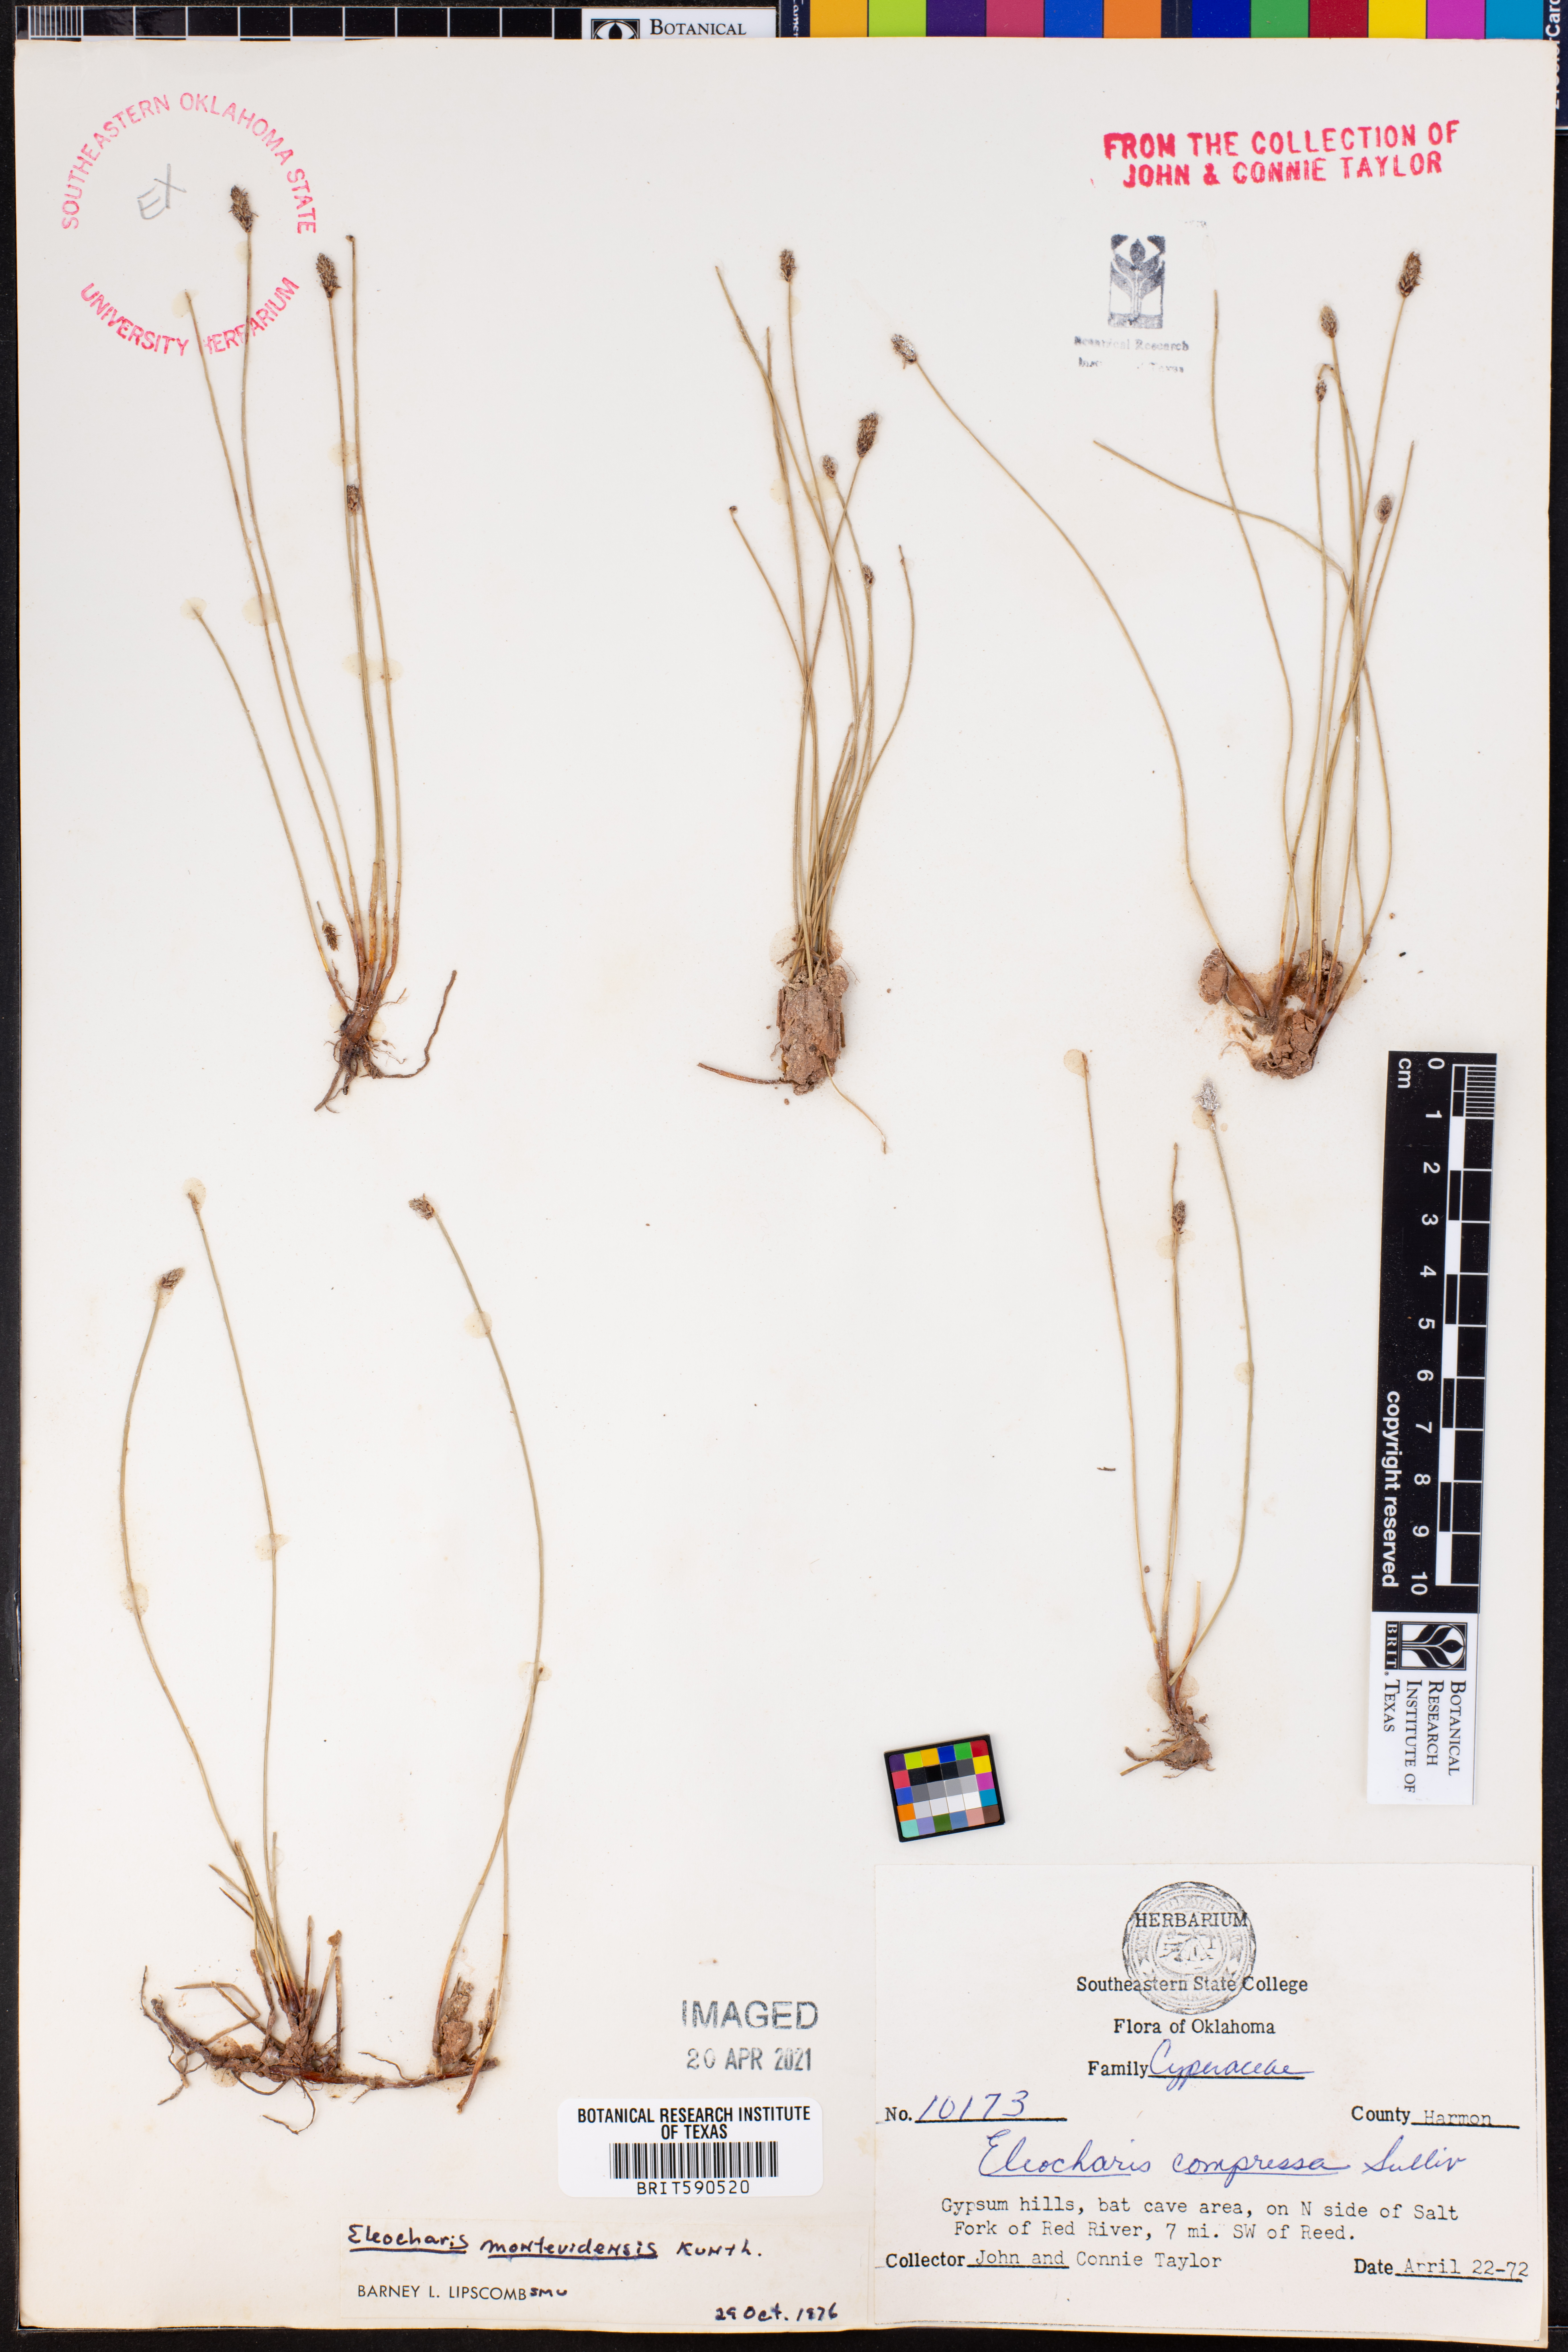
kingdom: Plantae
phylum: Tracheophyta
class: Liliopsida
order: Poales
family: Cyperaceae
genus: Eleocharis
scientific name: Eleocharis montevidensis
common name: Sand spike-rush
